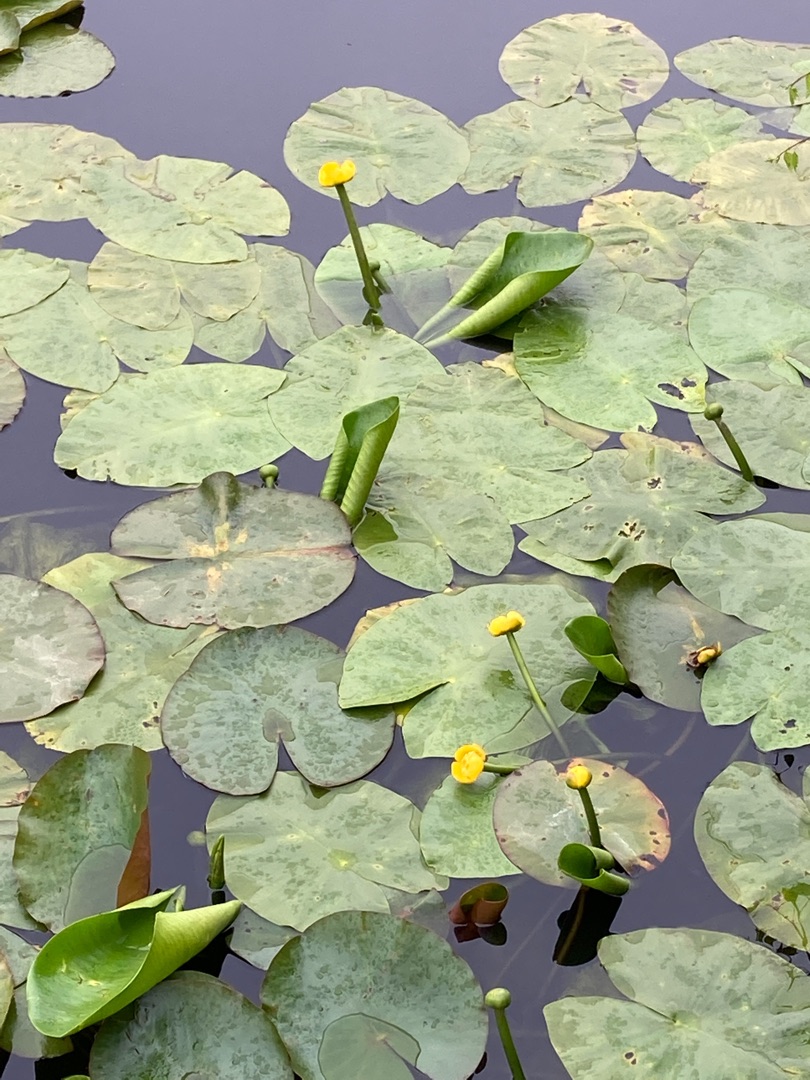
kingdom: Plantae
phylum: Tracheophyta
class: Magnoliopsida
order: Nymphaeales
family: Nymphaeaceae
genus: Nuphar
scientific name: Nuphar lutea
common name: Gul åkande
